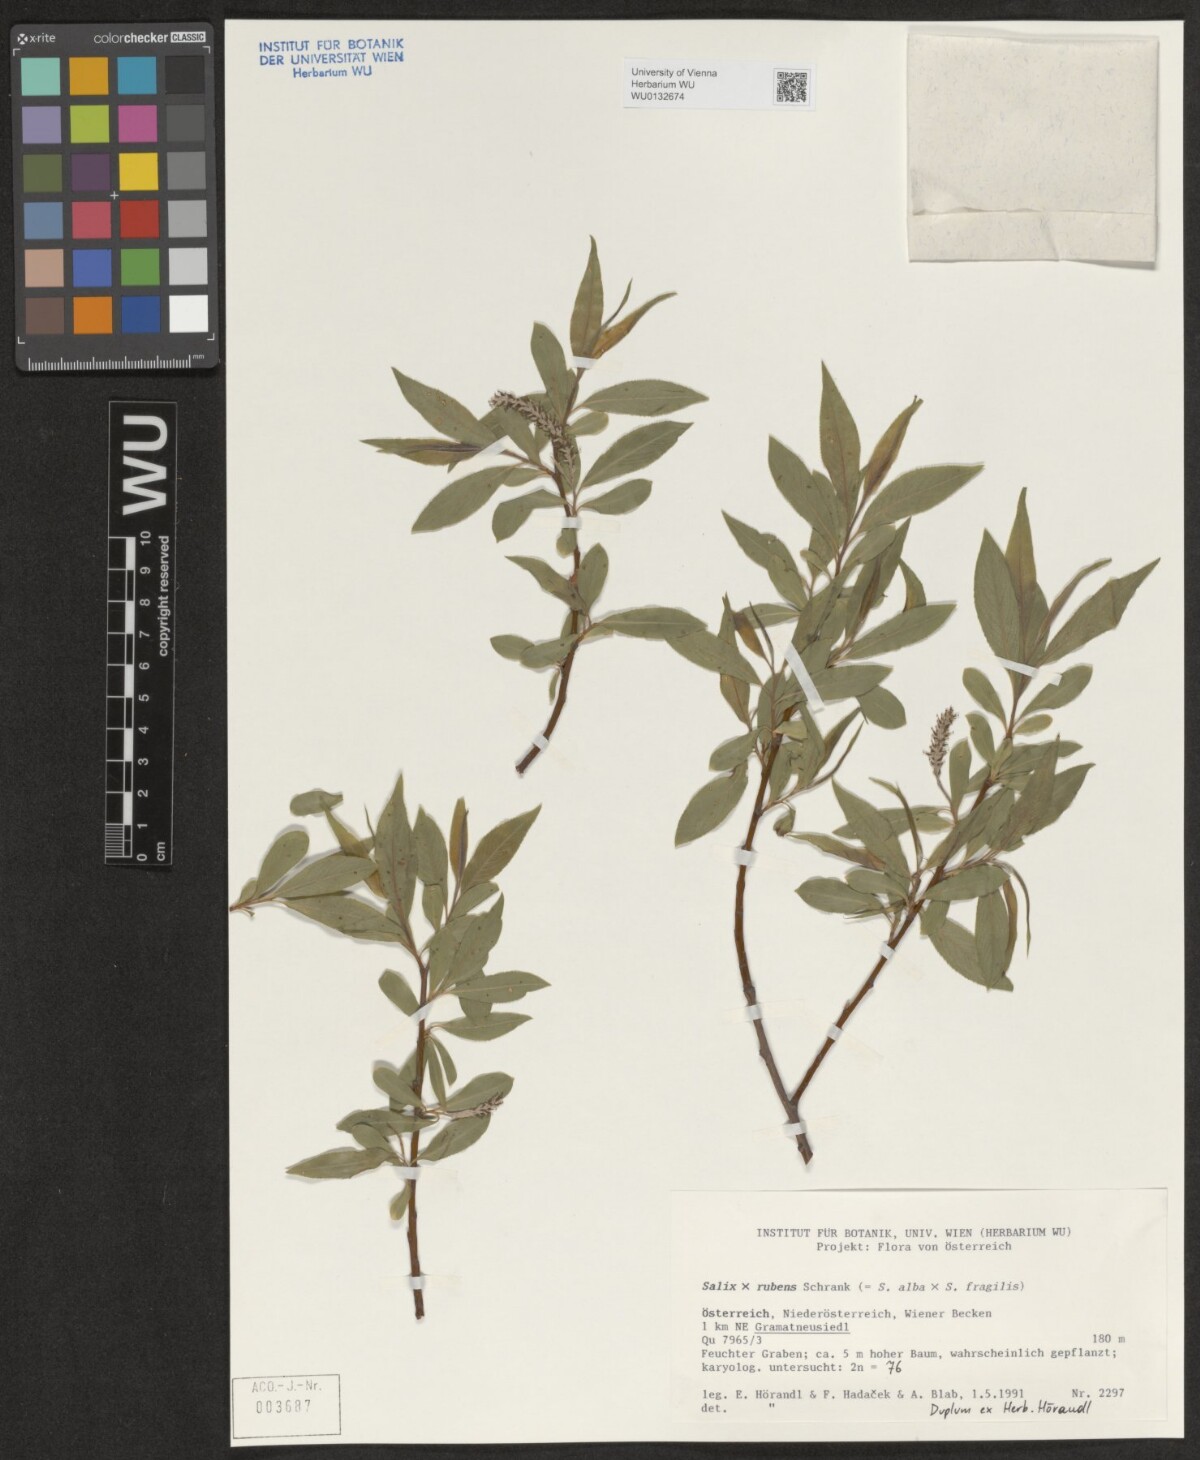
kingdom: Plantae
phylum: Tracheophyta
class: Magnoliopsida
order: Malpighiales
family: Salicaceae
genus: Salix
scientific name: Salix rubens
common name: Hybrid crack willow
